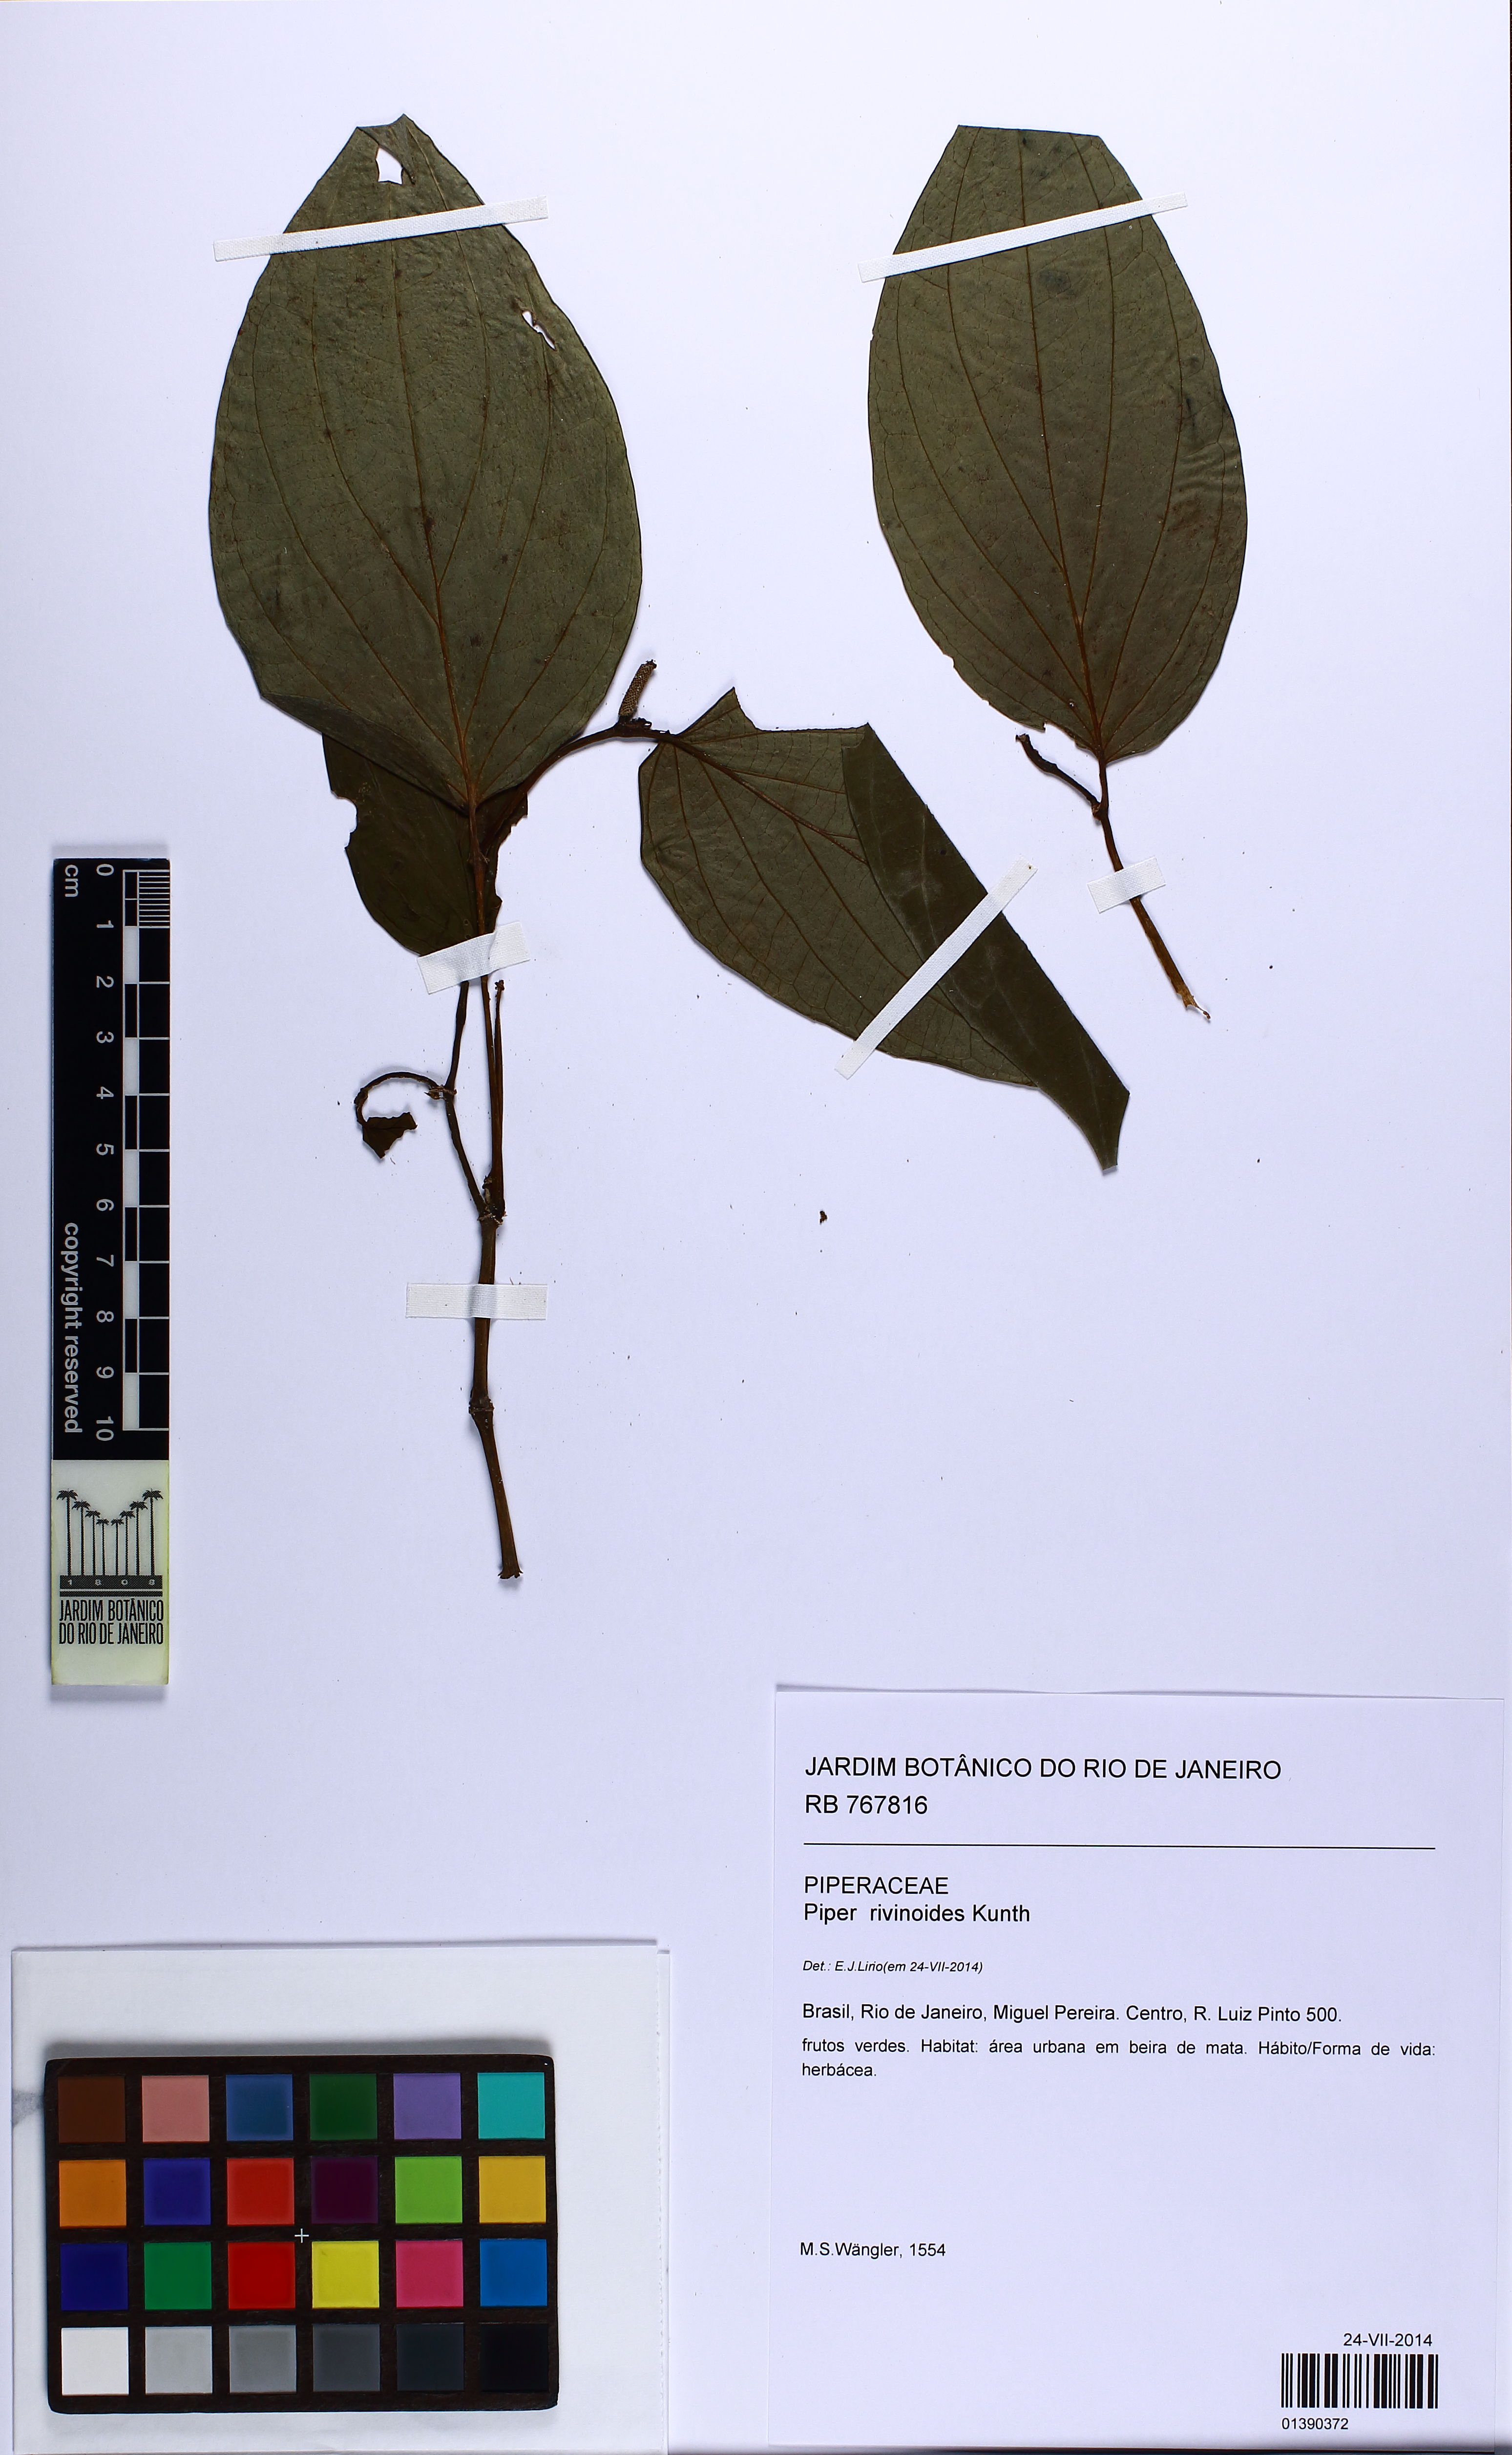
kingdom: Plantae
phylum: Tracheophyta
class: Magnoliopsida
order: Piperales
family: Piperaceae
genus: Piper
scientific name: Piper rivinoides
